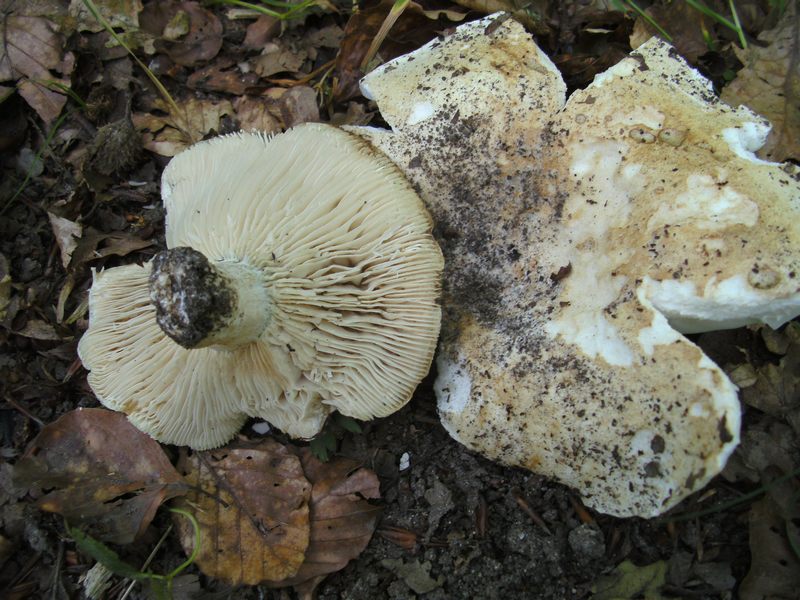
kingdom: Fungi
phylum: Basidiomycota
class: Agaricomycetes
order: Russulales
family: Russulaceae
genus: Russula
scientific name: Russula chloroides
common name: grønhalset tragt-skørhat
